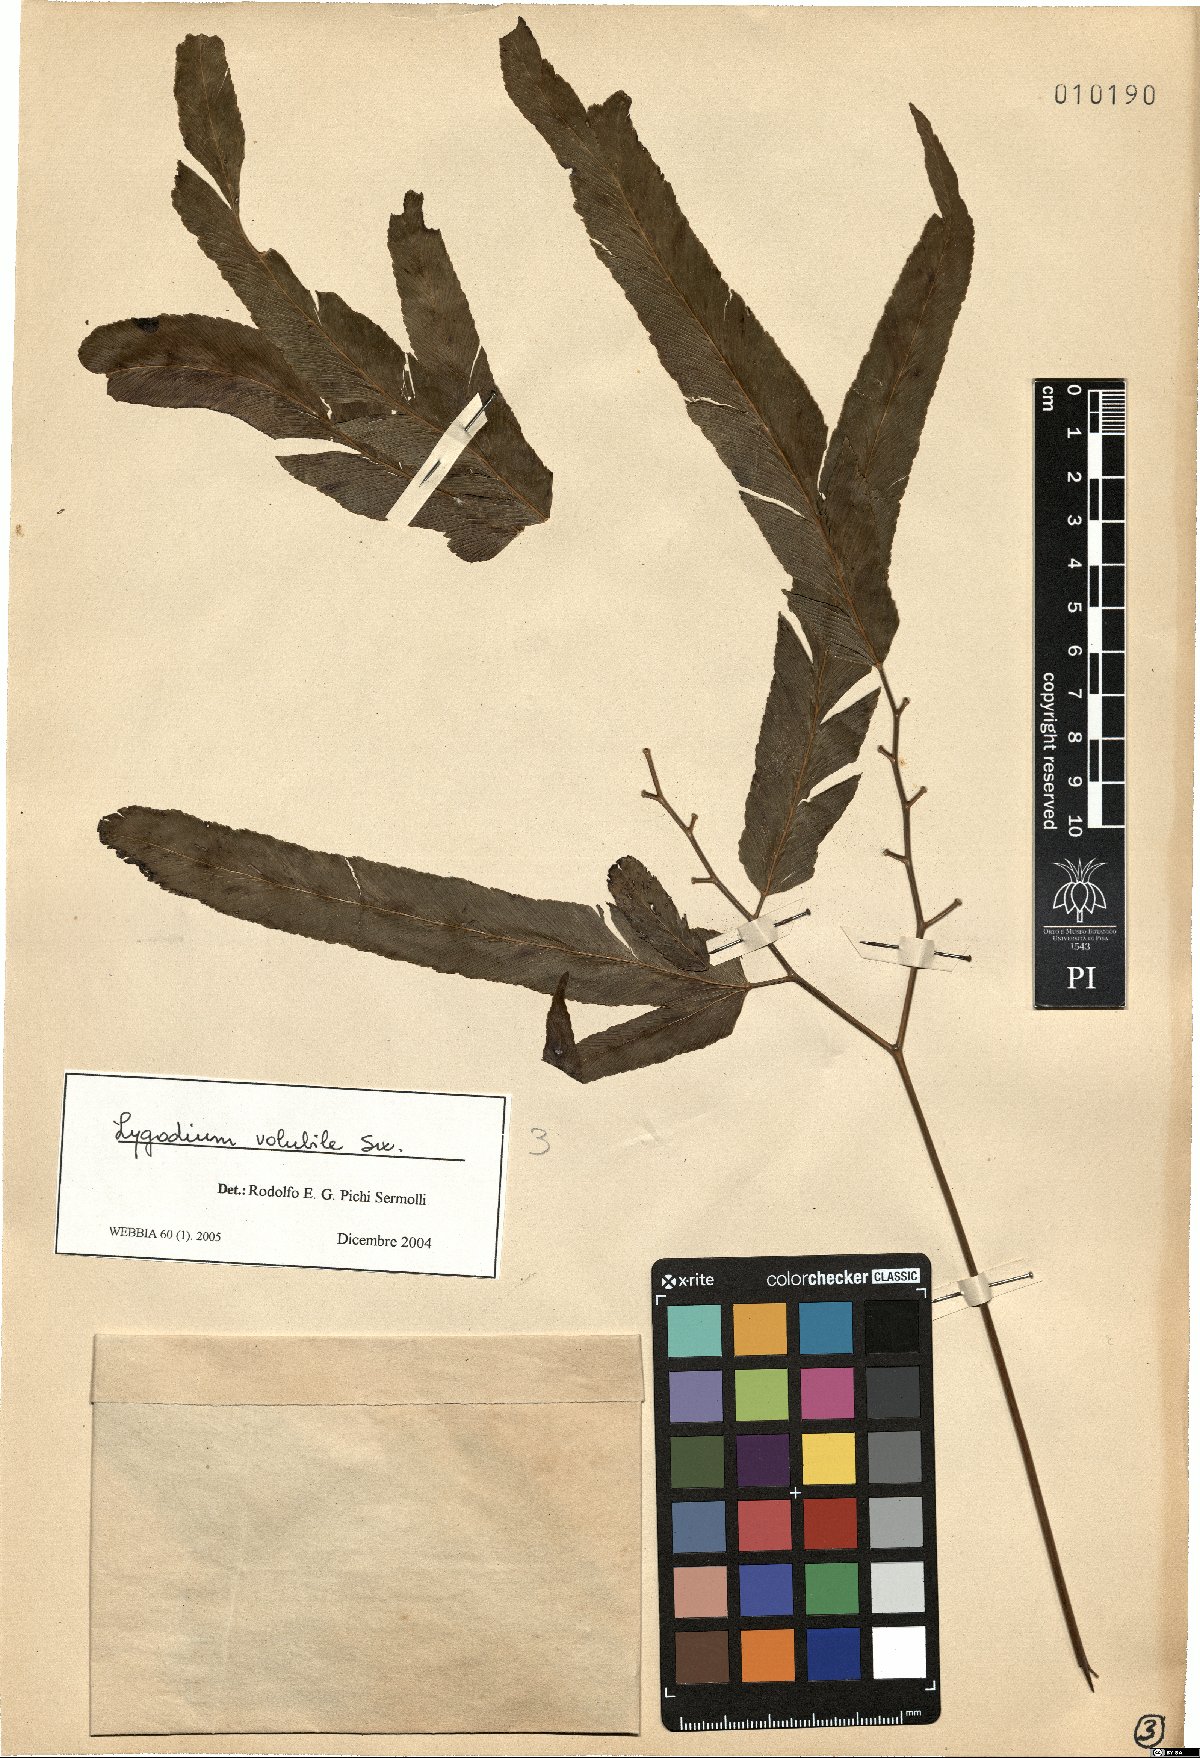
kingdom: Plantae
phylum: Tracheophyta
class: Polypodiopsida
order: Schizaeales
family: Lygodiaceae
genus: Lygodium
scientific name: Lygodium volubile
